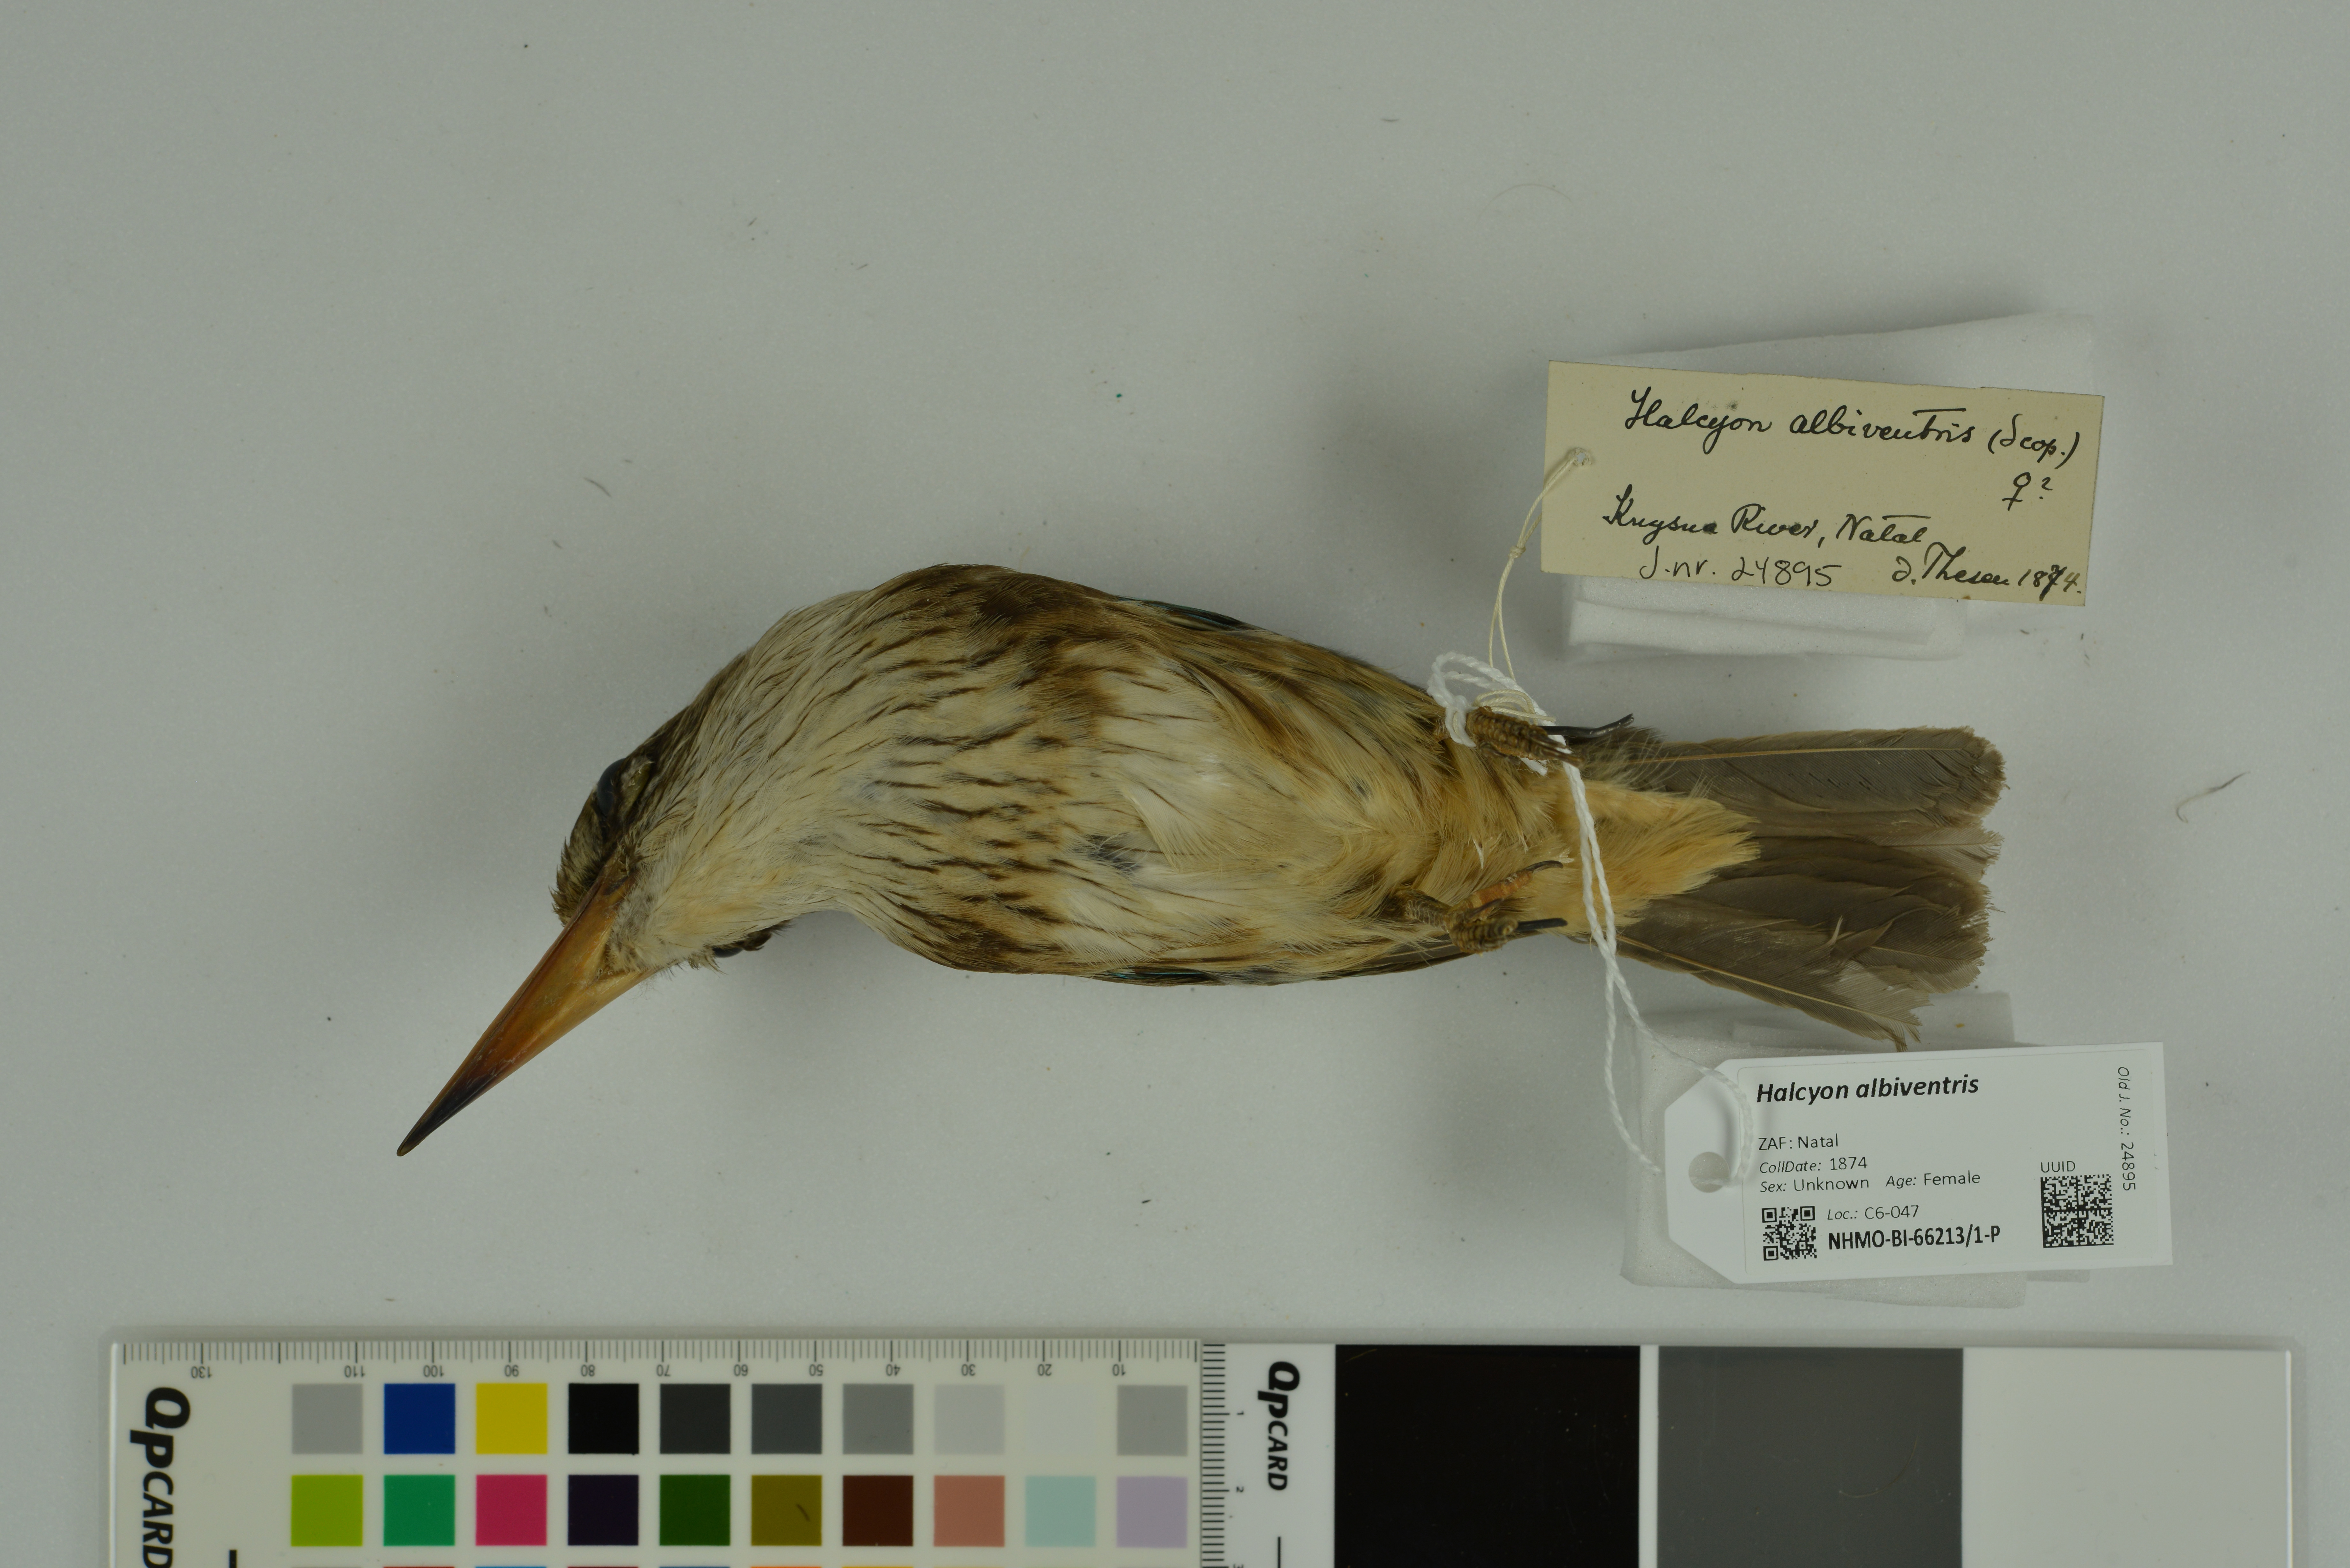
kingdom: Animalia
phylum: Chordata
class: Aves
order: Coraciiformes
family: Alcedinidae
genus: Halcyon
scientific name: Halcyon albiventris
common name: Brown-hooded kingfisher
